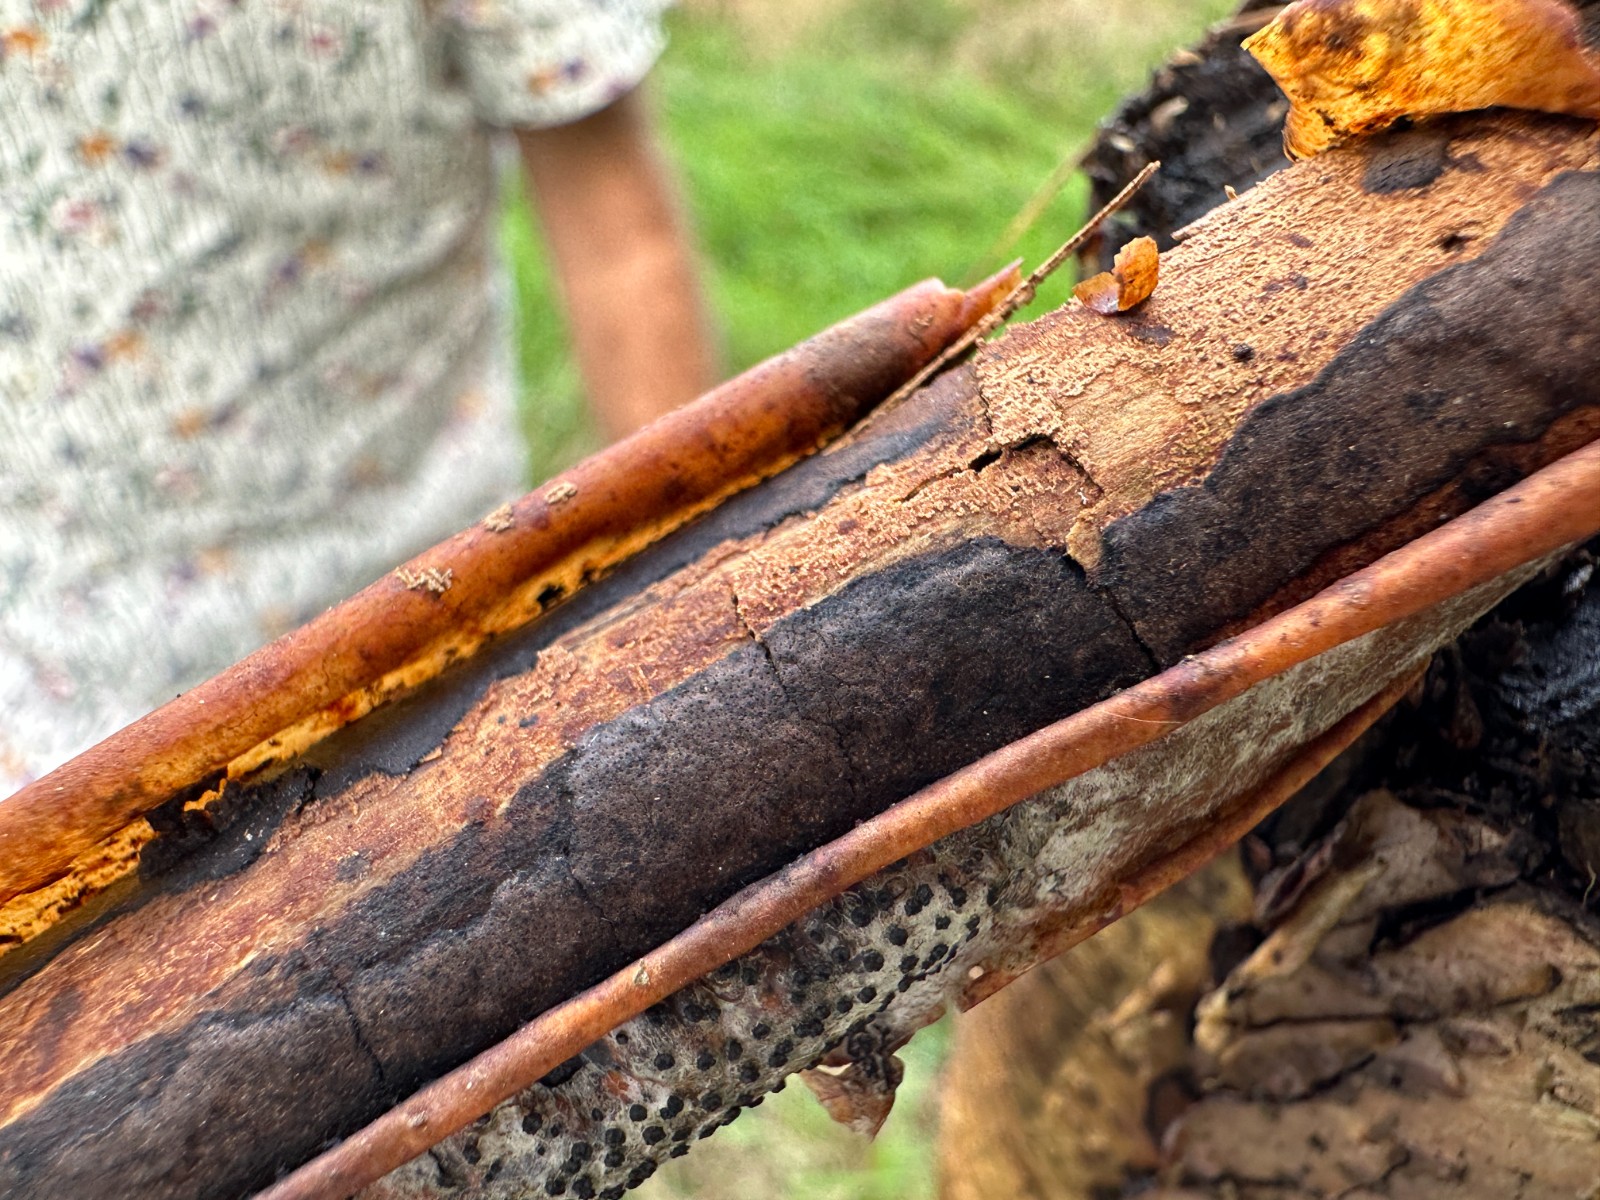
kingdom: Fungi
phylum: Ascomycota
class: Sordariomycetes
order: Xylariales
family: Diatrypaceae
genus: Diatrype
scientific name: Diatrype decorticata
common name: barksprænger-kulskorpe
